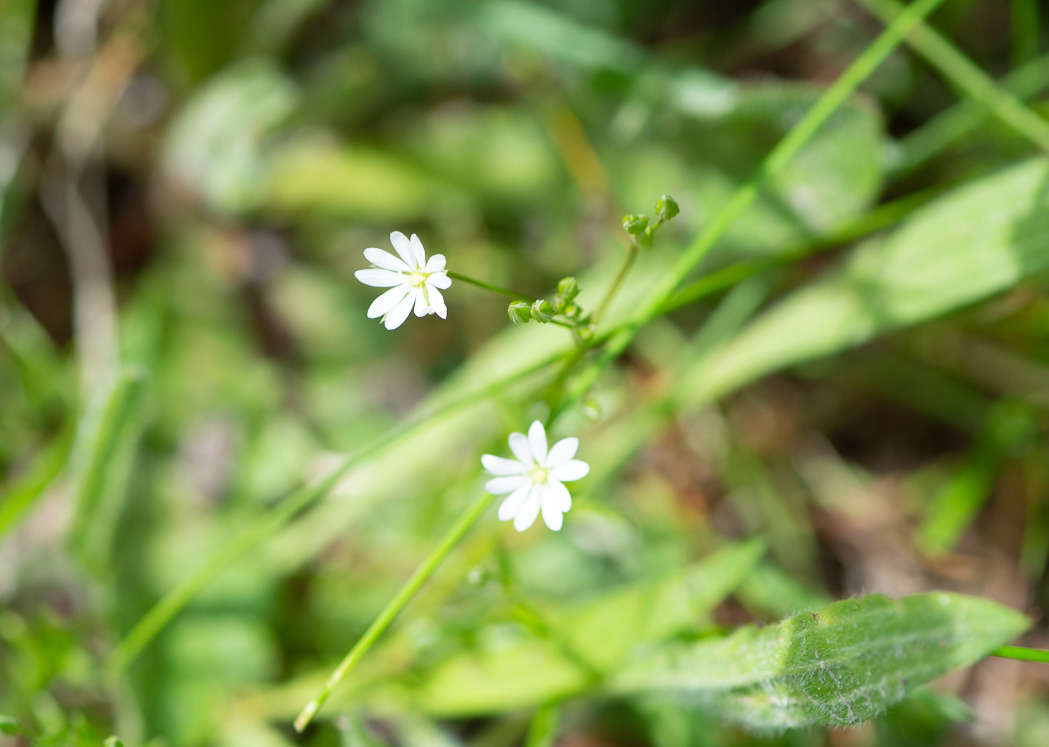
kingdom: Plantae
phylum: Tracheophyta
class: Magnoliopsida
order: Caryophyllales
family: Caryophyllaceae
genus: Stellaria
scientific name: Stellaria graminea
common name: Græsbladet fladstjerne
